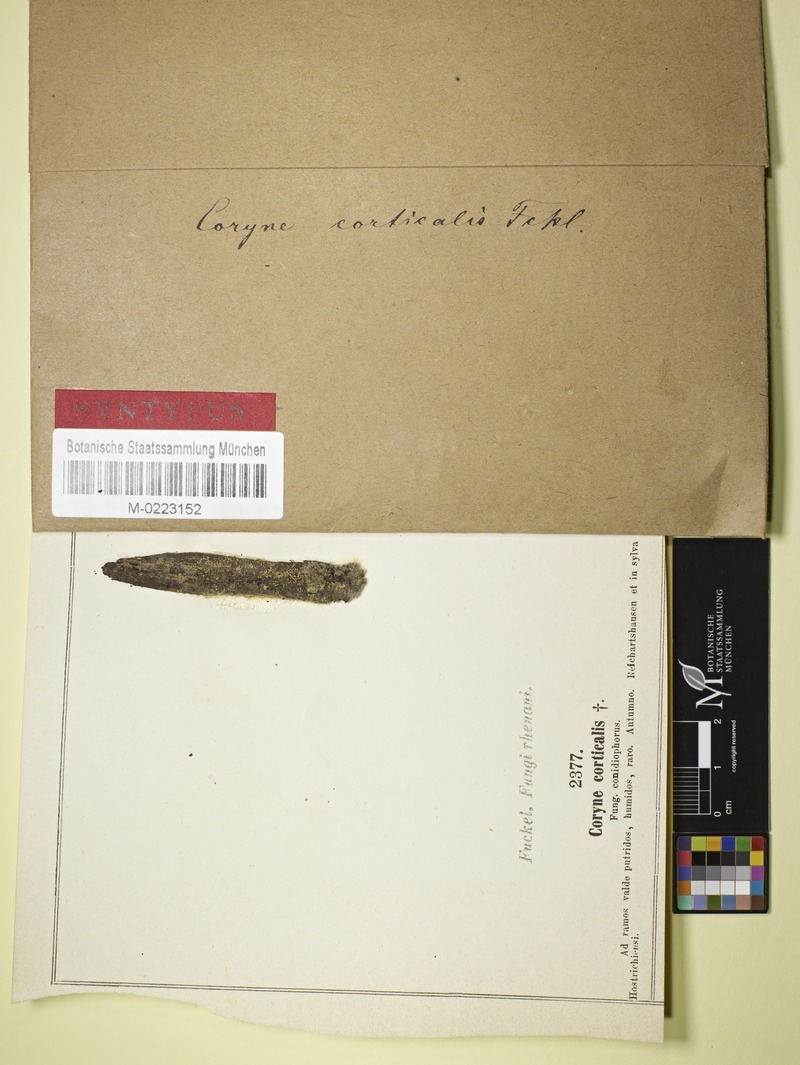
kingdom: Fungi
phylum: Ascomycota
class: Leotiomycetes
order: Helotiales
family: Gelatinodiscaceae
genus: Coryne
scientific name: Coryne
